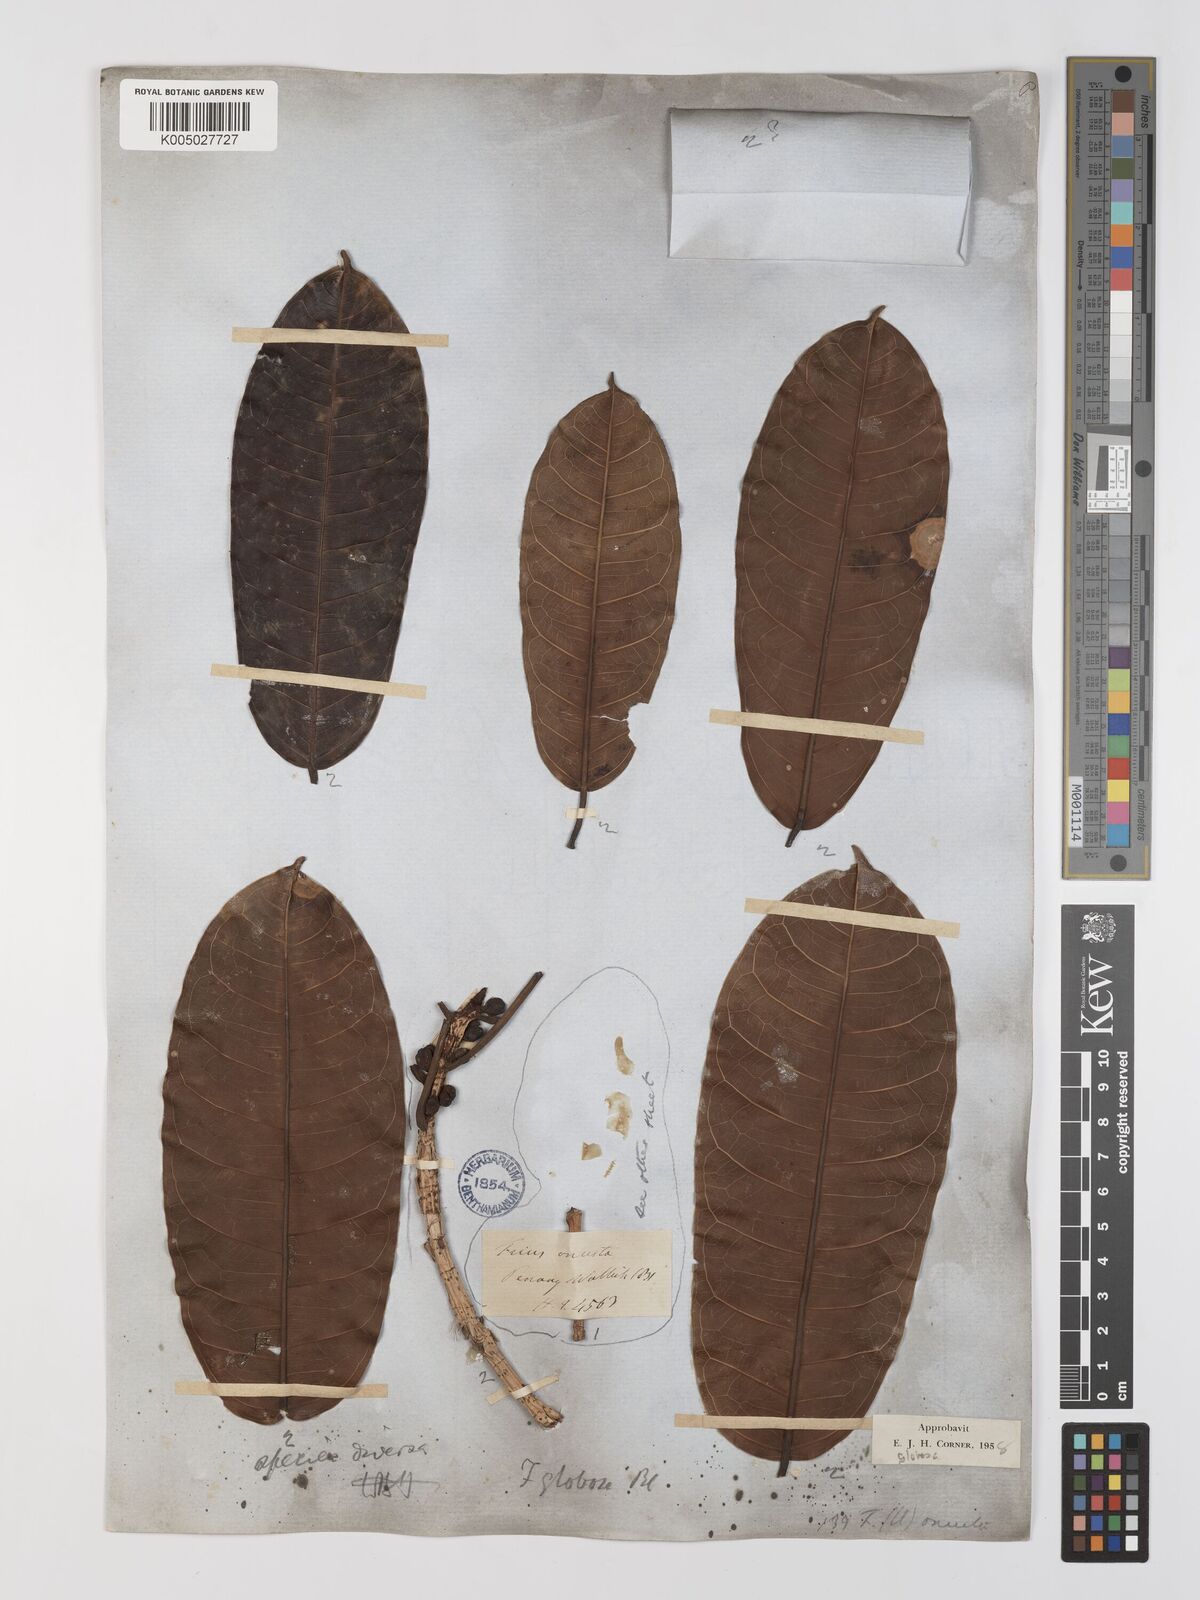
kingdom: Plantae
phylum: Tracheophyta
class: Magnoliopsida
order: Rosales
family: Moraceae
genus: Ficus
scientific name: Ficus
